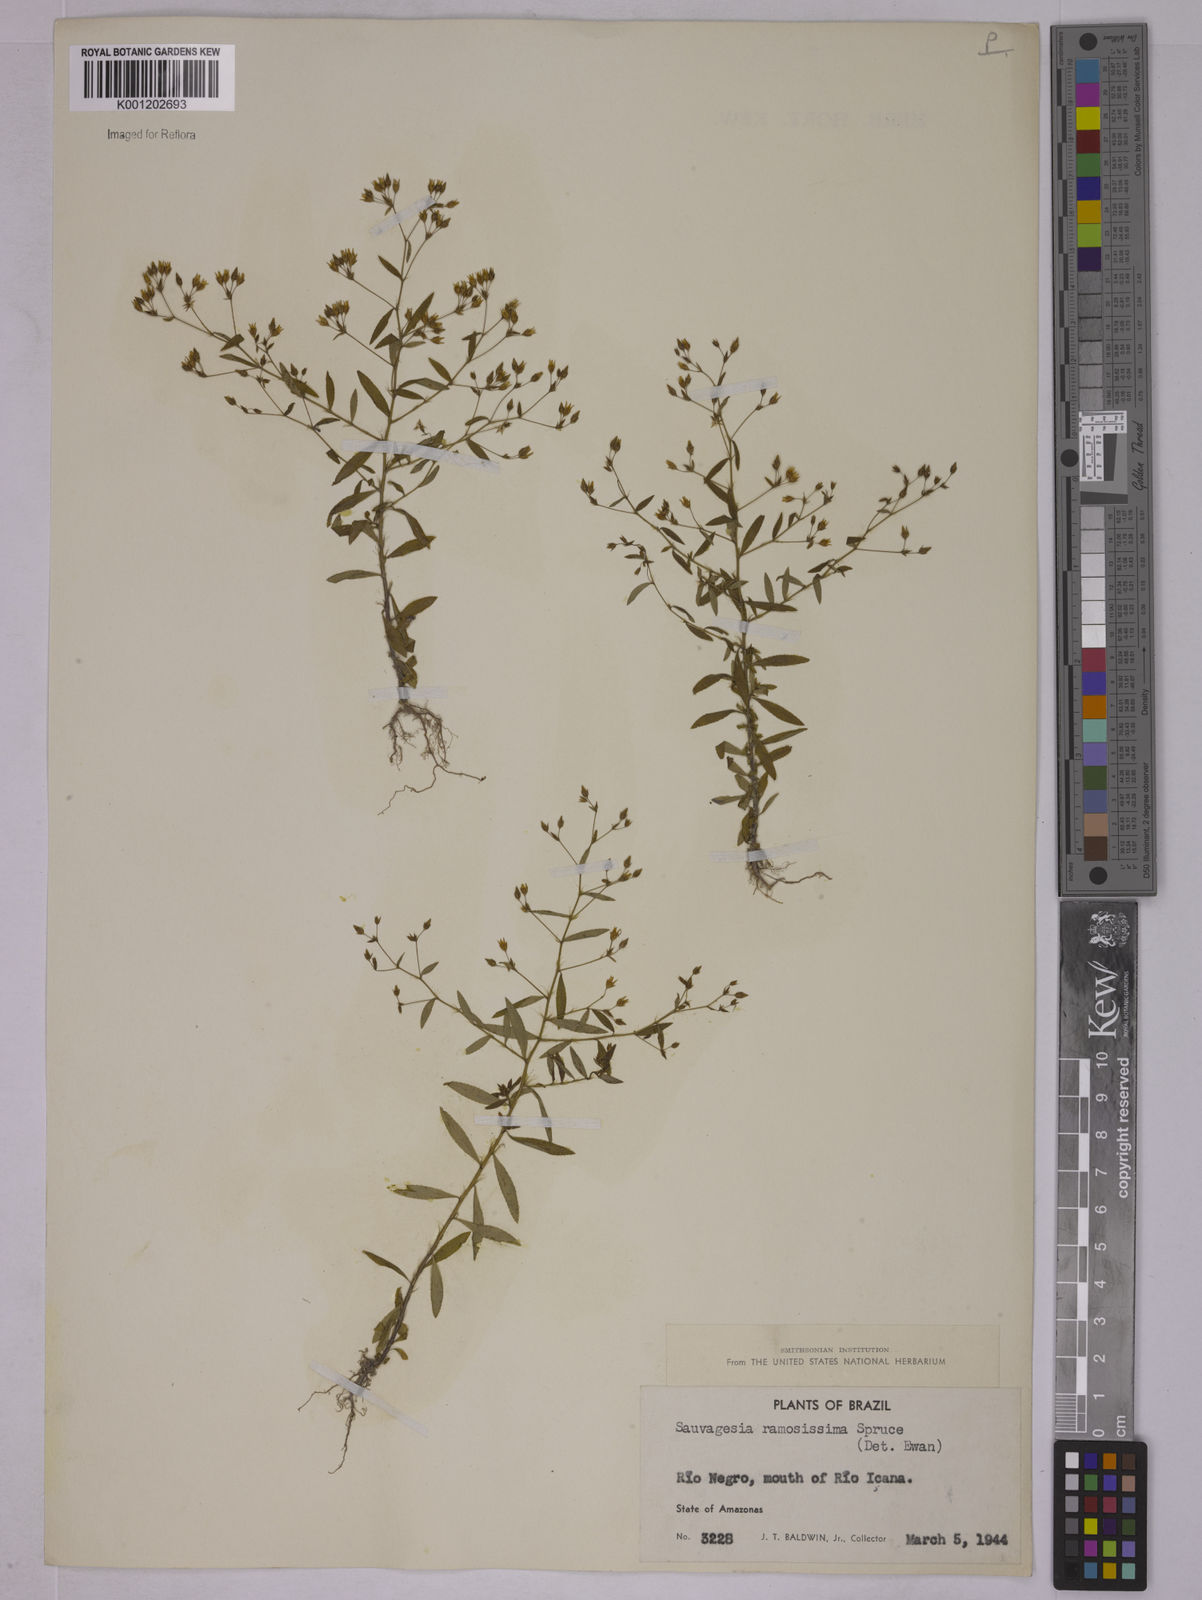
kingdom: Plantae
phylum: Tracheophyta
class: Magnoliopsida
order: Malpighiales
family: Ochnaceae
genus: Sauvagesia
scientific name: Sauvagesia ramosissima
